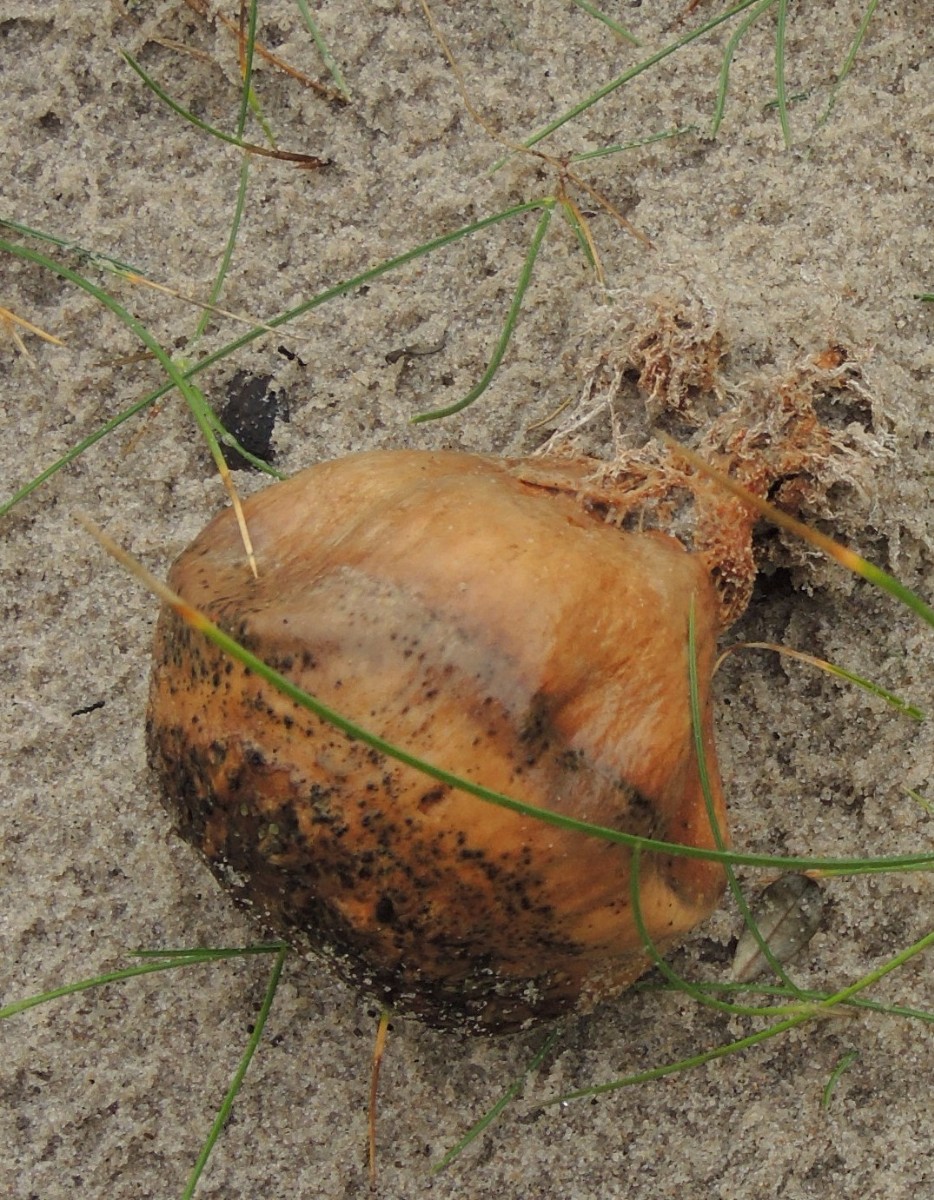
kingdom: Fungi
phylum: Basidiomycota
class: Agaricomycetes
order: Boletales
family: Sclerodermataceae
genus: Scleroderma
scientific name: Scleroderma septentrionale
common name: sand-bruskbold
